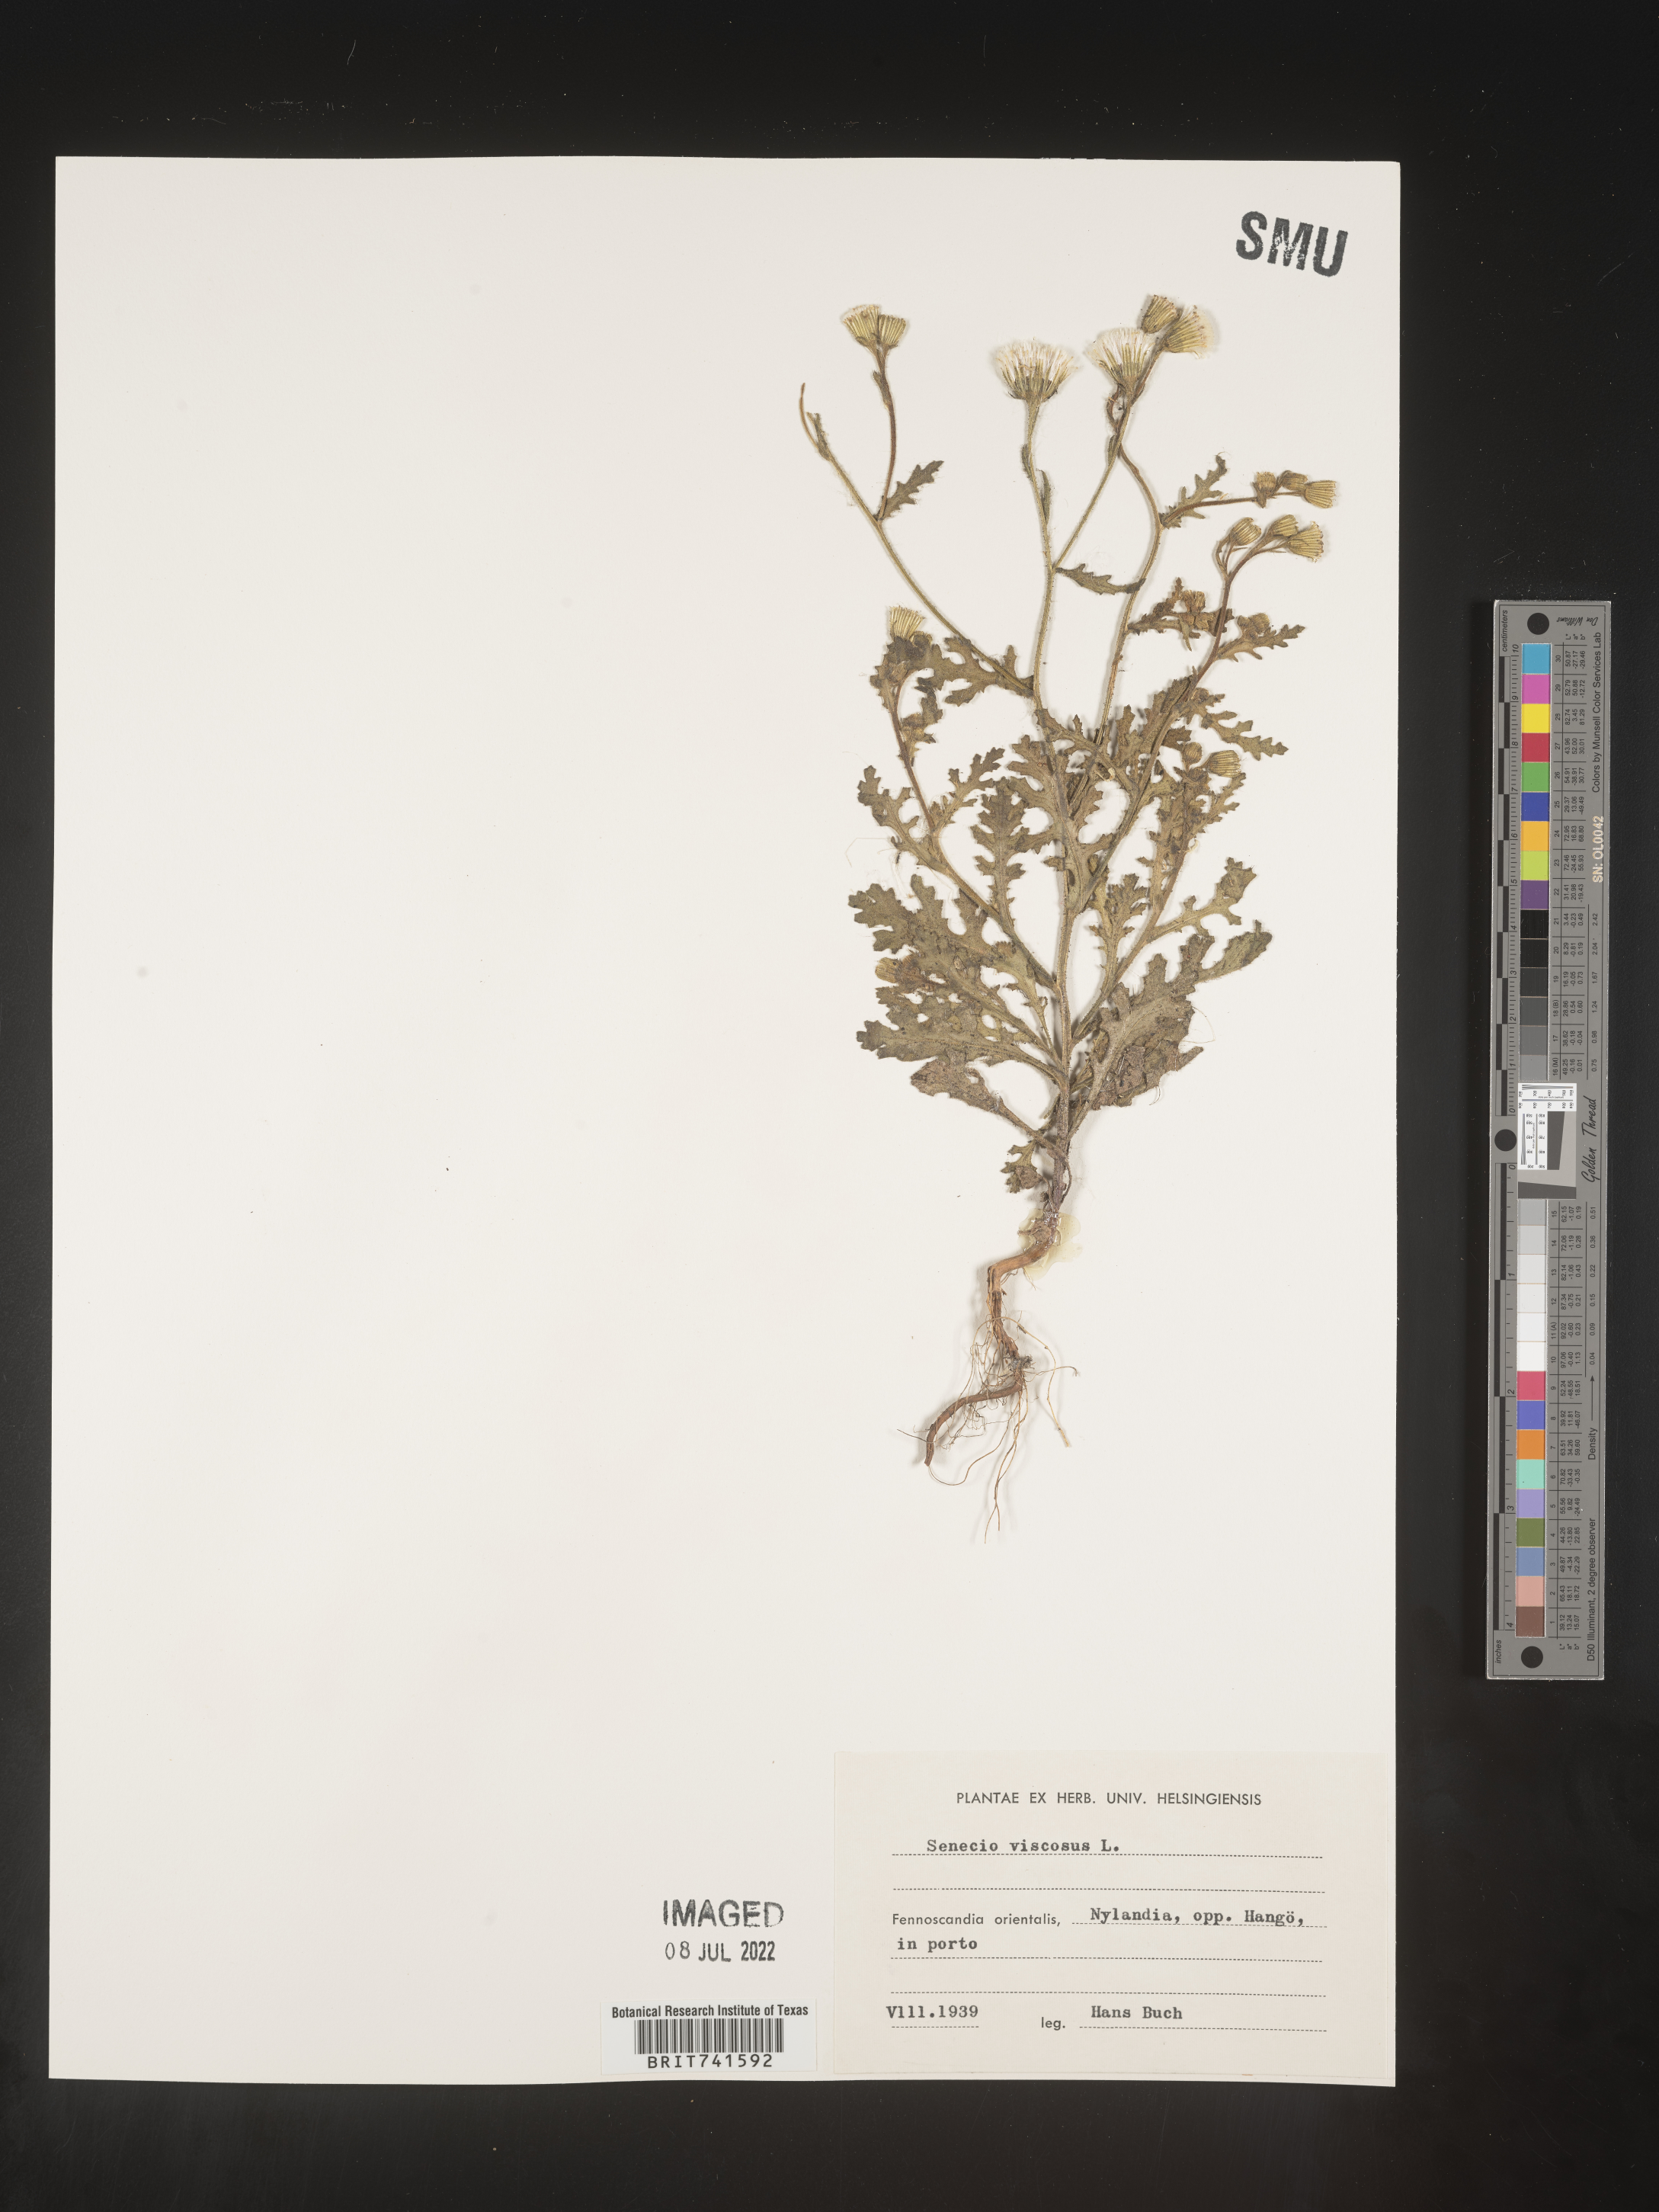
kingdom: Plantae
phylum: Tracheophyta
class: Magnoliopsida
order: Asterales
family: Asteraceae
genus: Senecio
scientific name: Senecio
